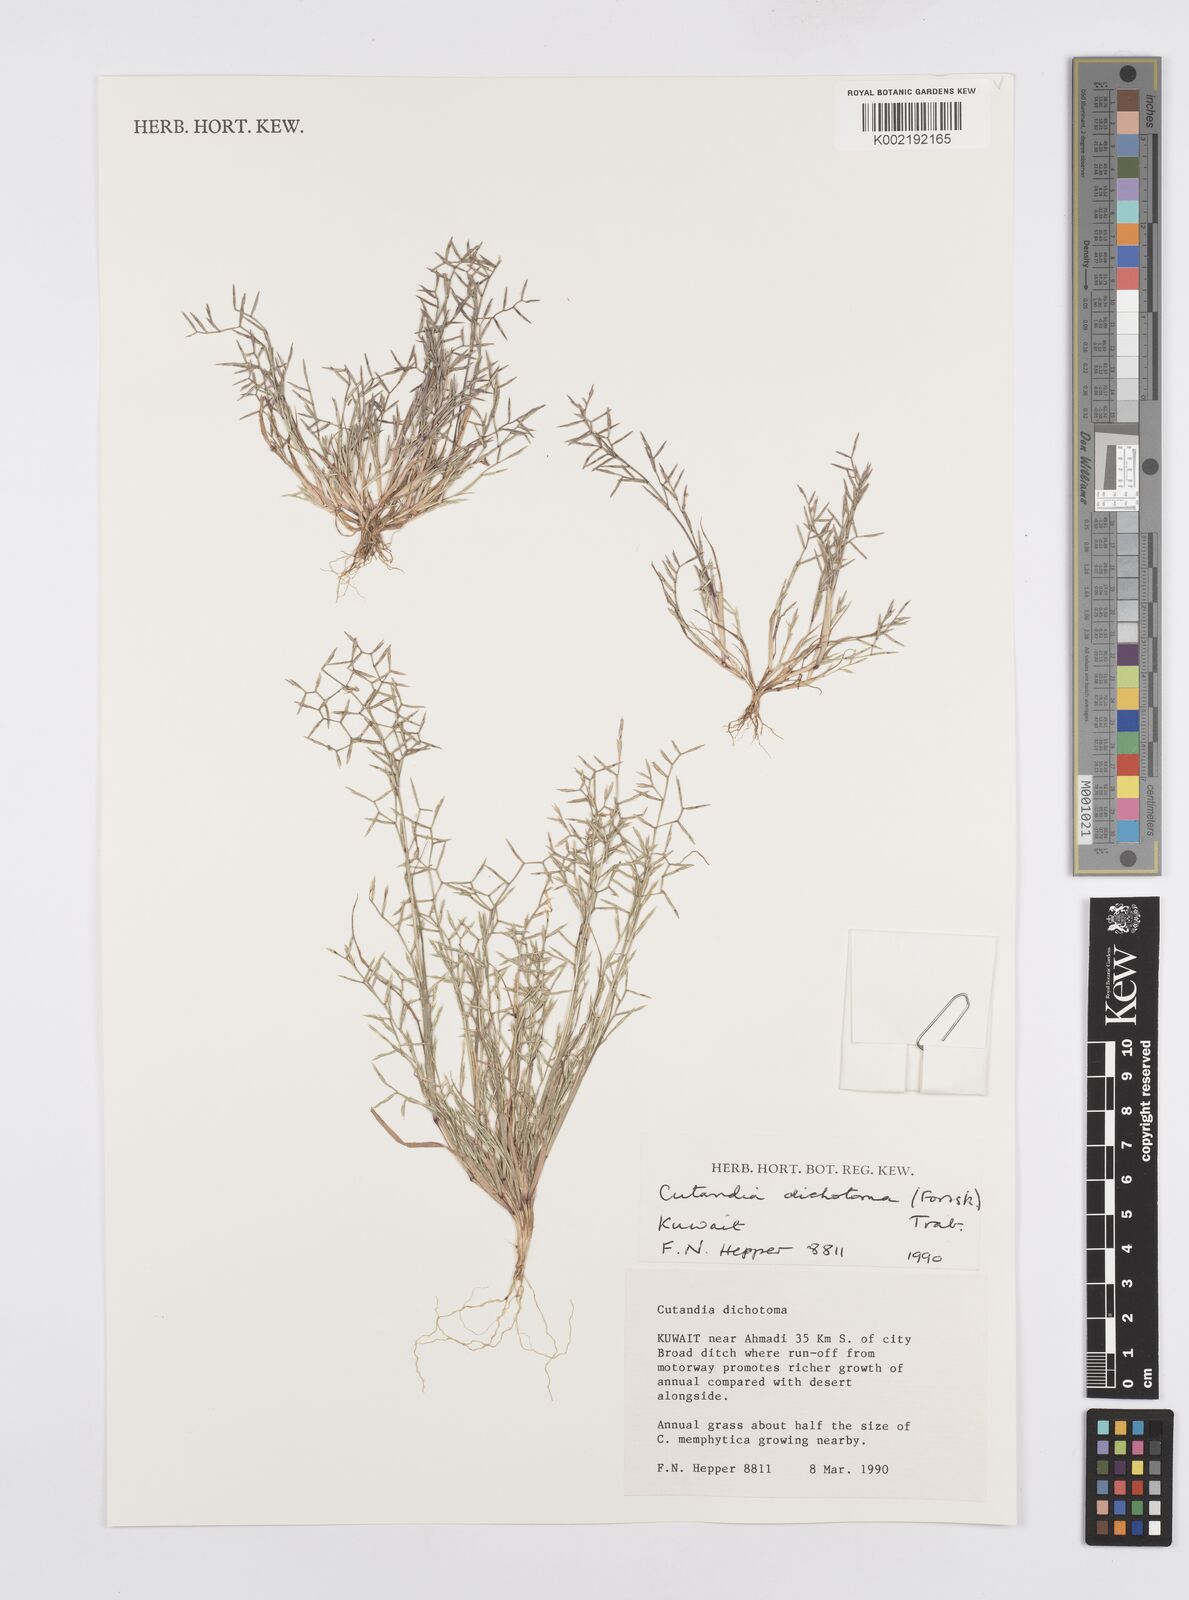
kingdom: Plantae
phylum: Tracheophyta
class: Liliopsida
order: Poales
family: Poaceae
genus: Cutandia
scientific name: Cutandia dichotoma
